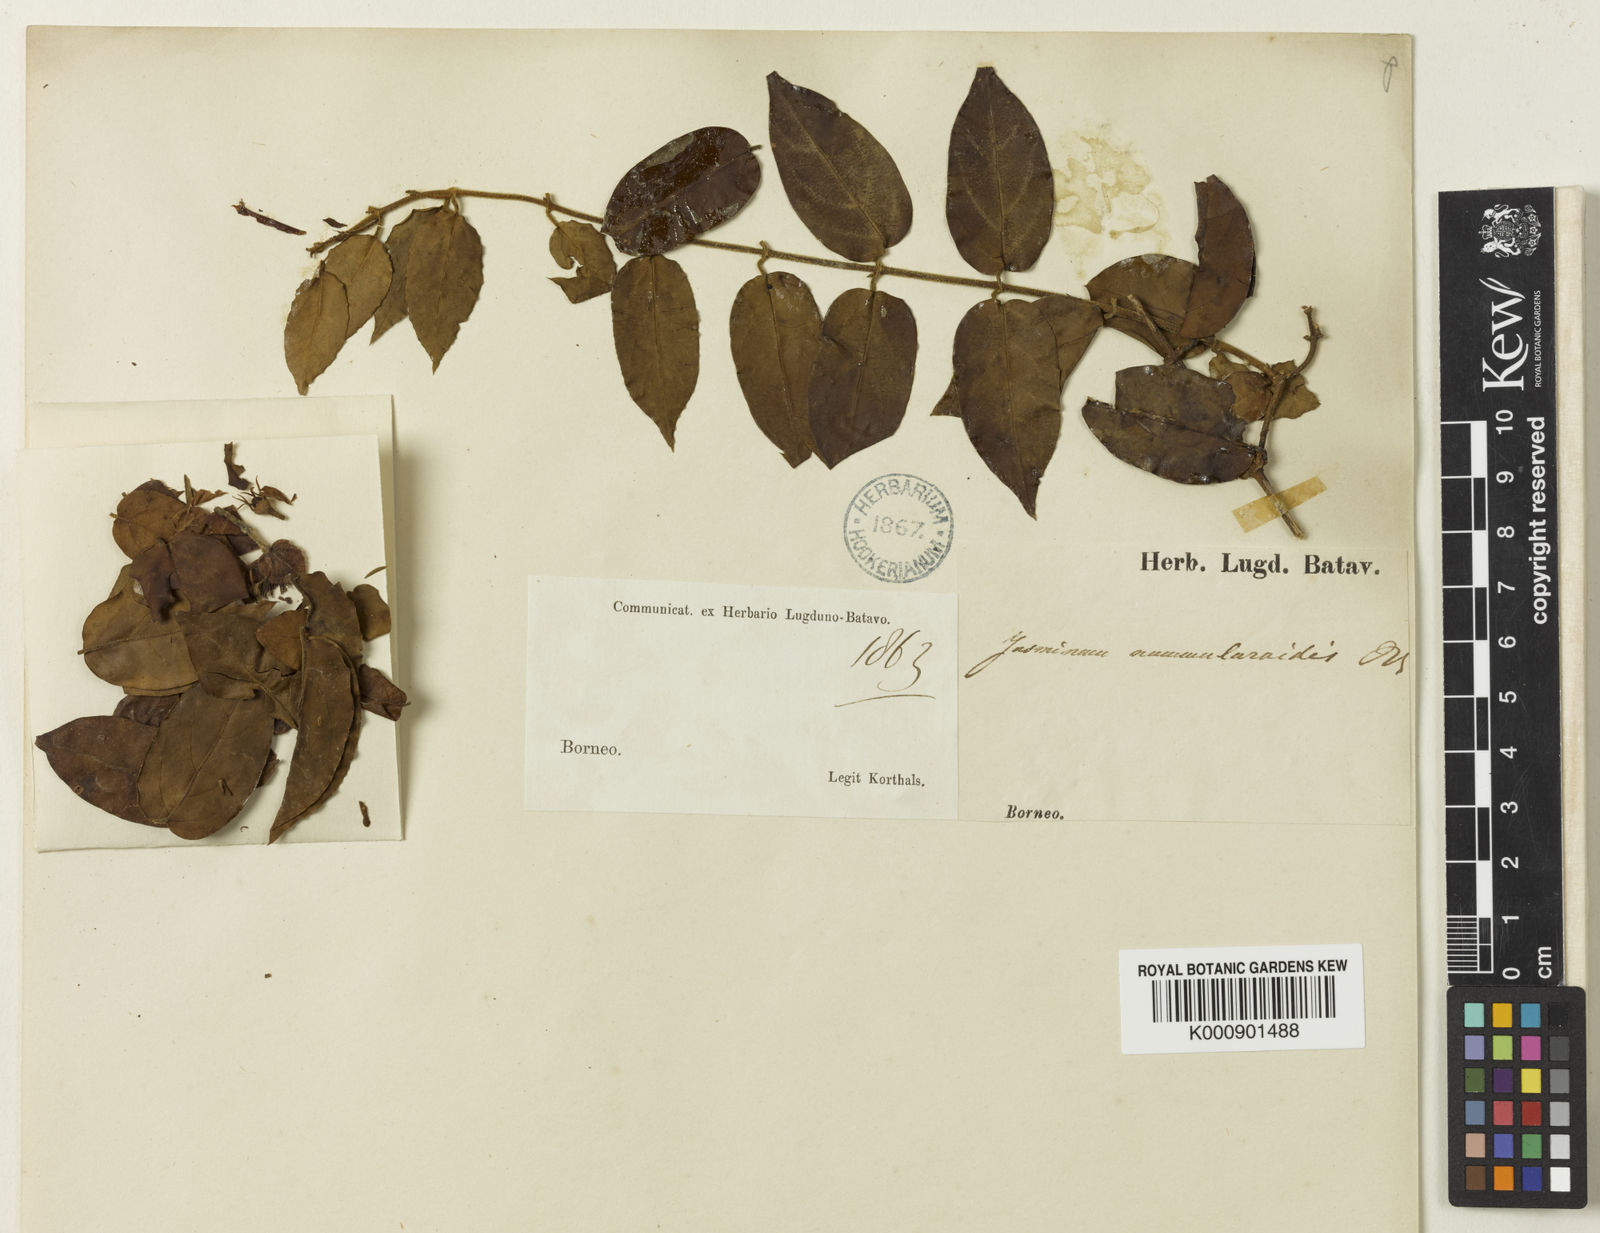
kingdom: Plantae
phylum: Tracheophyta
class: Magnoliopsida
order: Lamiales
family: Oleaceae
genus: Jasminum
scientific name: Jasminum elongatum
